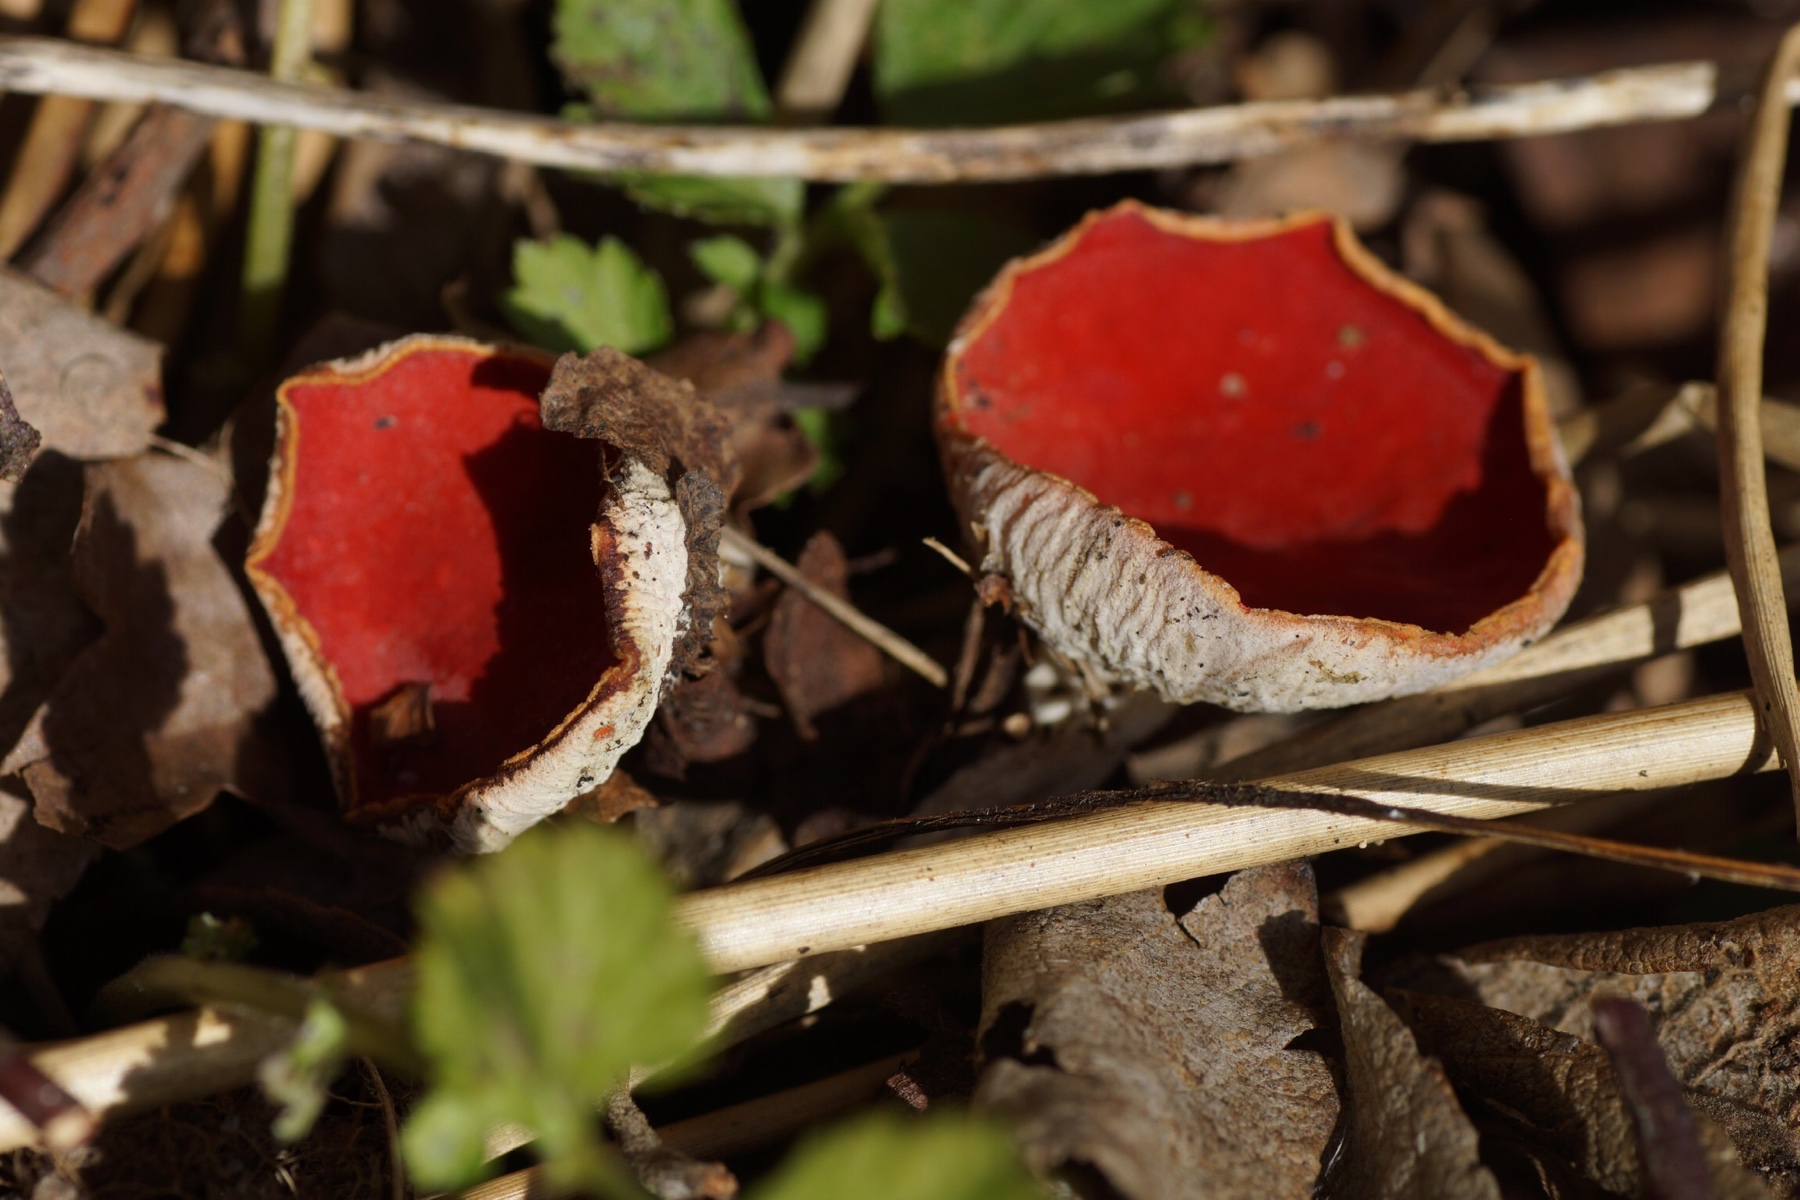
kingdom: Fungi
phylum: Ascomycota
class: Pezizomycetes
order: Pezizales
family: Sarcoscyphaceae
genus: Sarcoscypha
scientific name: Sarcoscypha austriaca
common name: krølhåret pragtbæger
